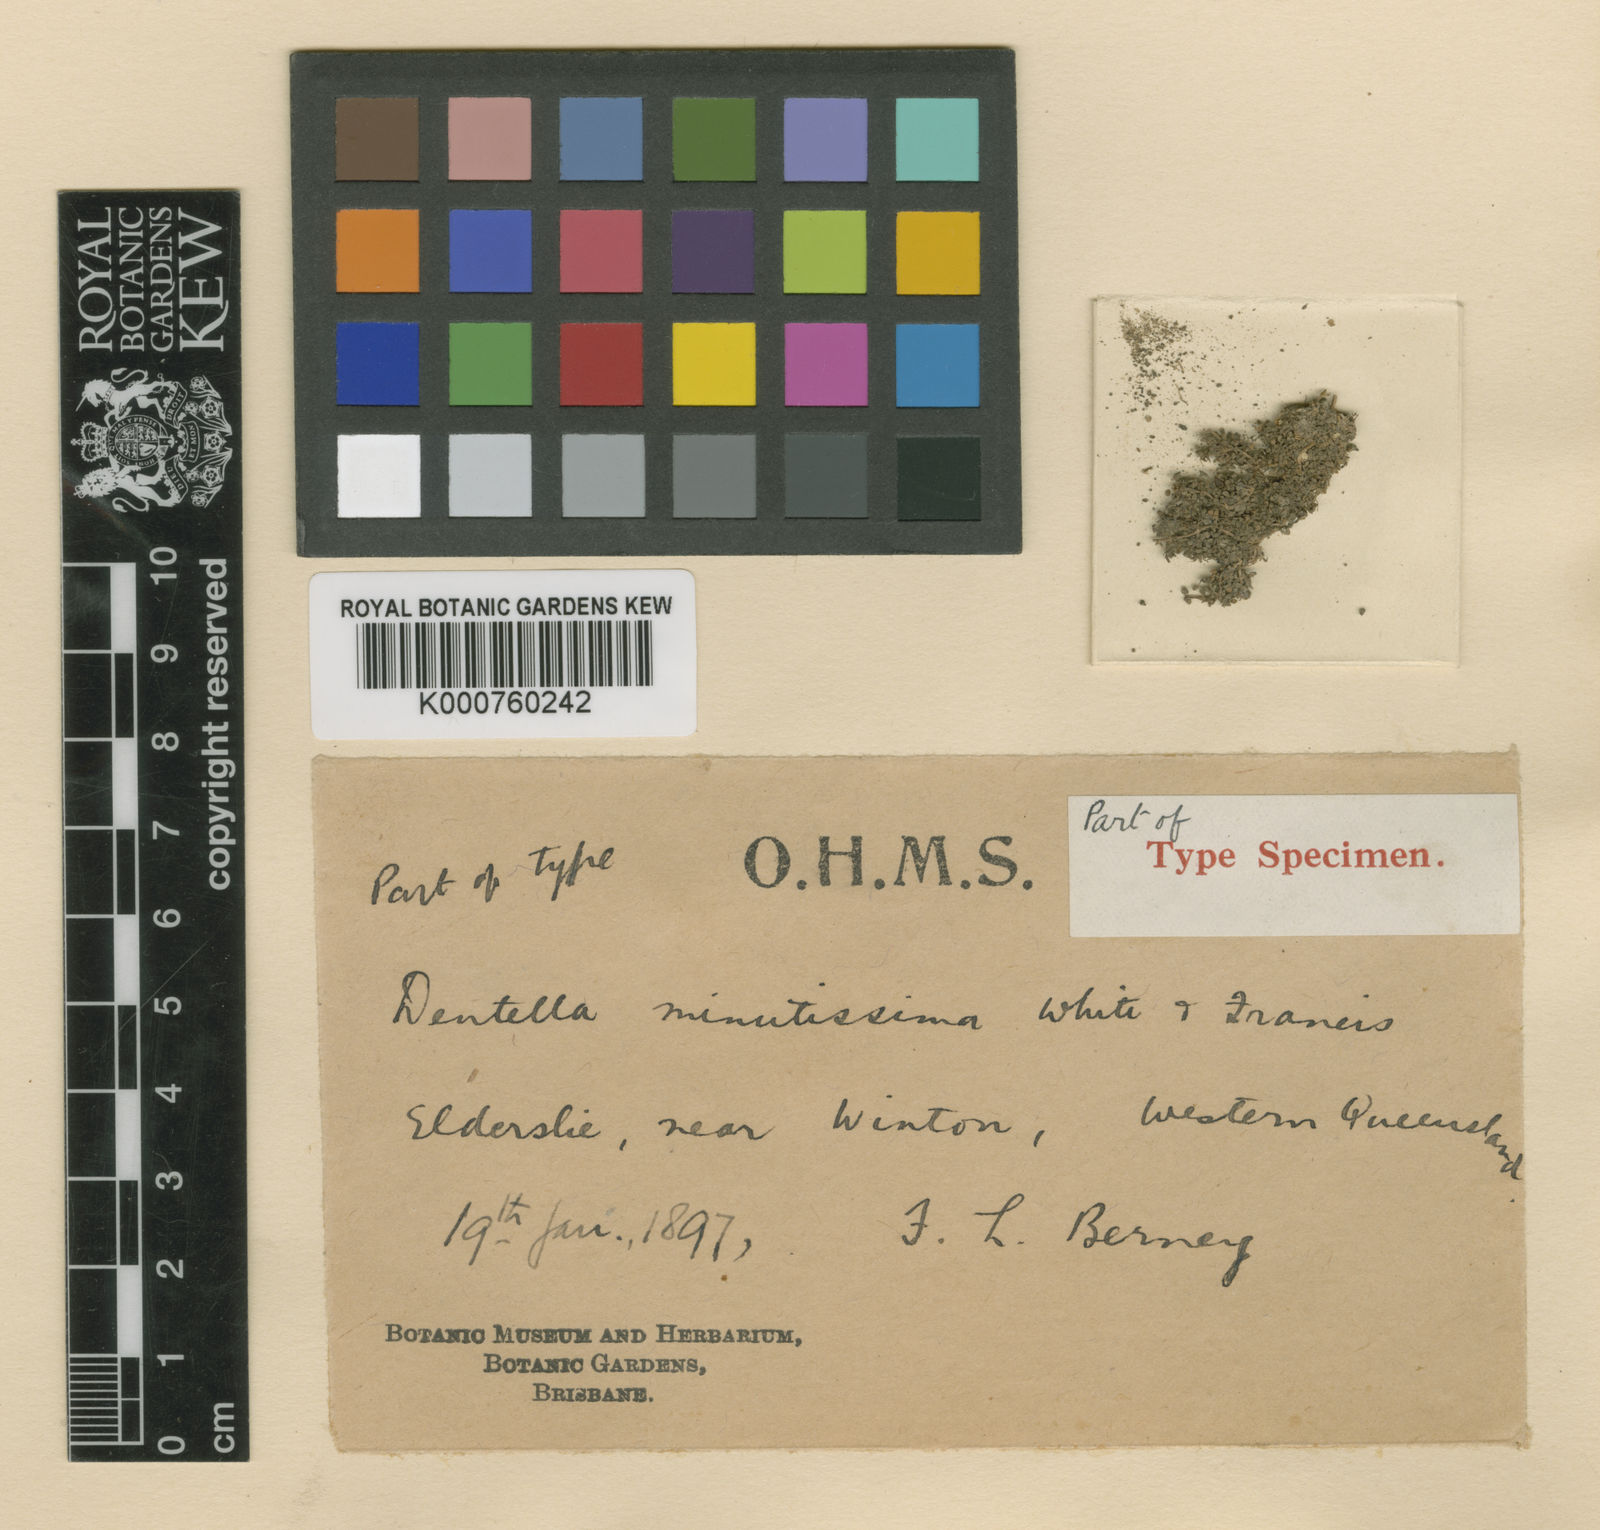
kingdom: Plantae
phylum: Tracheophyta
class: Magnoliopsida
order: Gentianales
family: Rubiaceae
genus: Dentella
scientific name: Dentella minutissima
